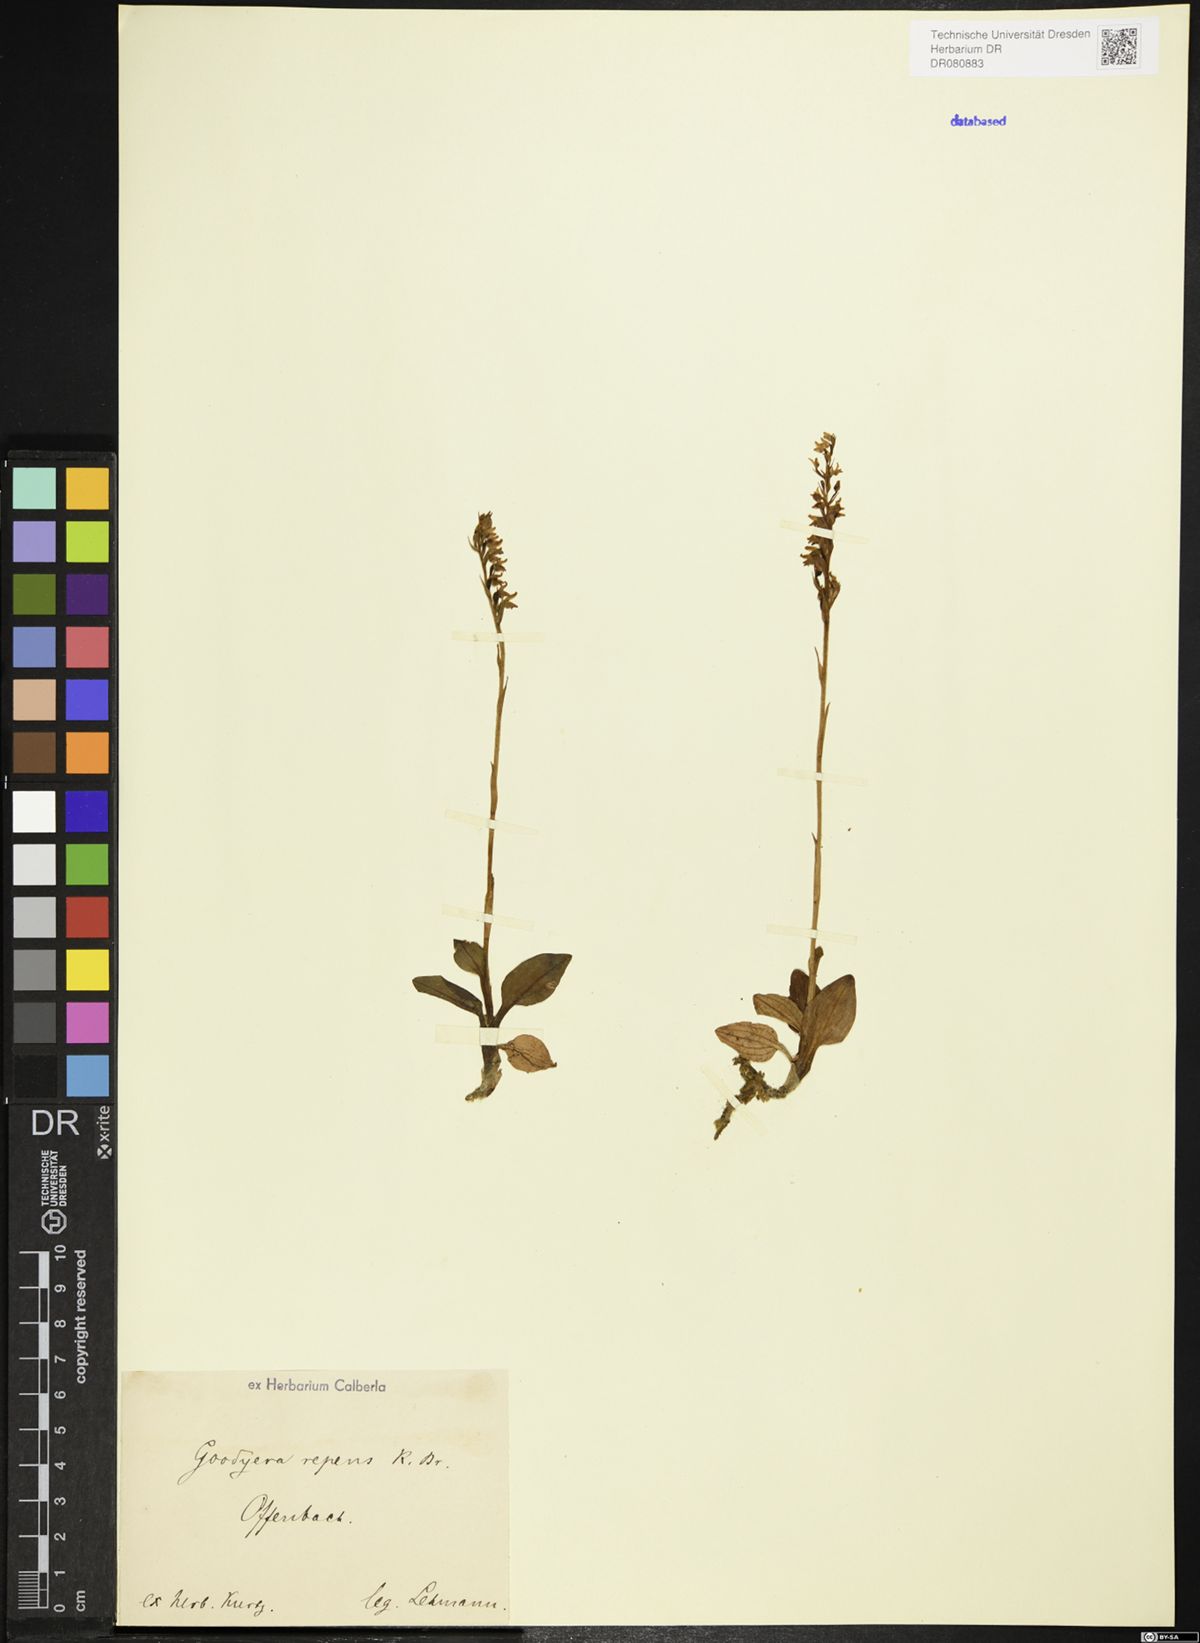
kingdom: Plantae
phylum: Tracheophyta
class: Liliopsida
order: Asparagales
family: Orchidaceae
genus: Goodyera
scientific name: Goodyera repens
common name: Creeping lady's-tresses
